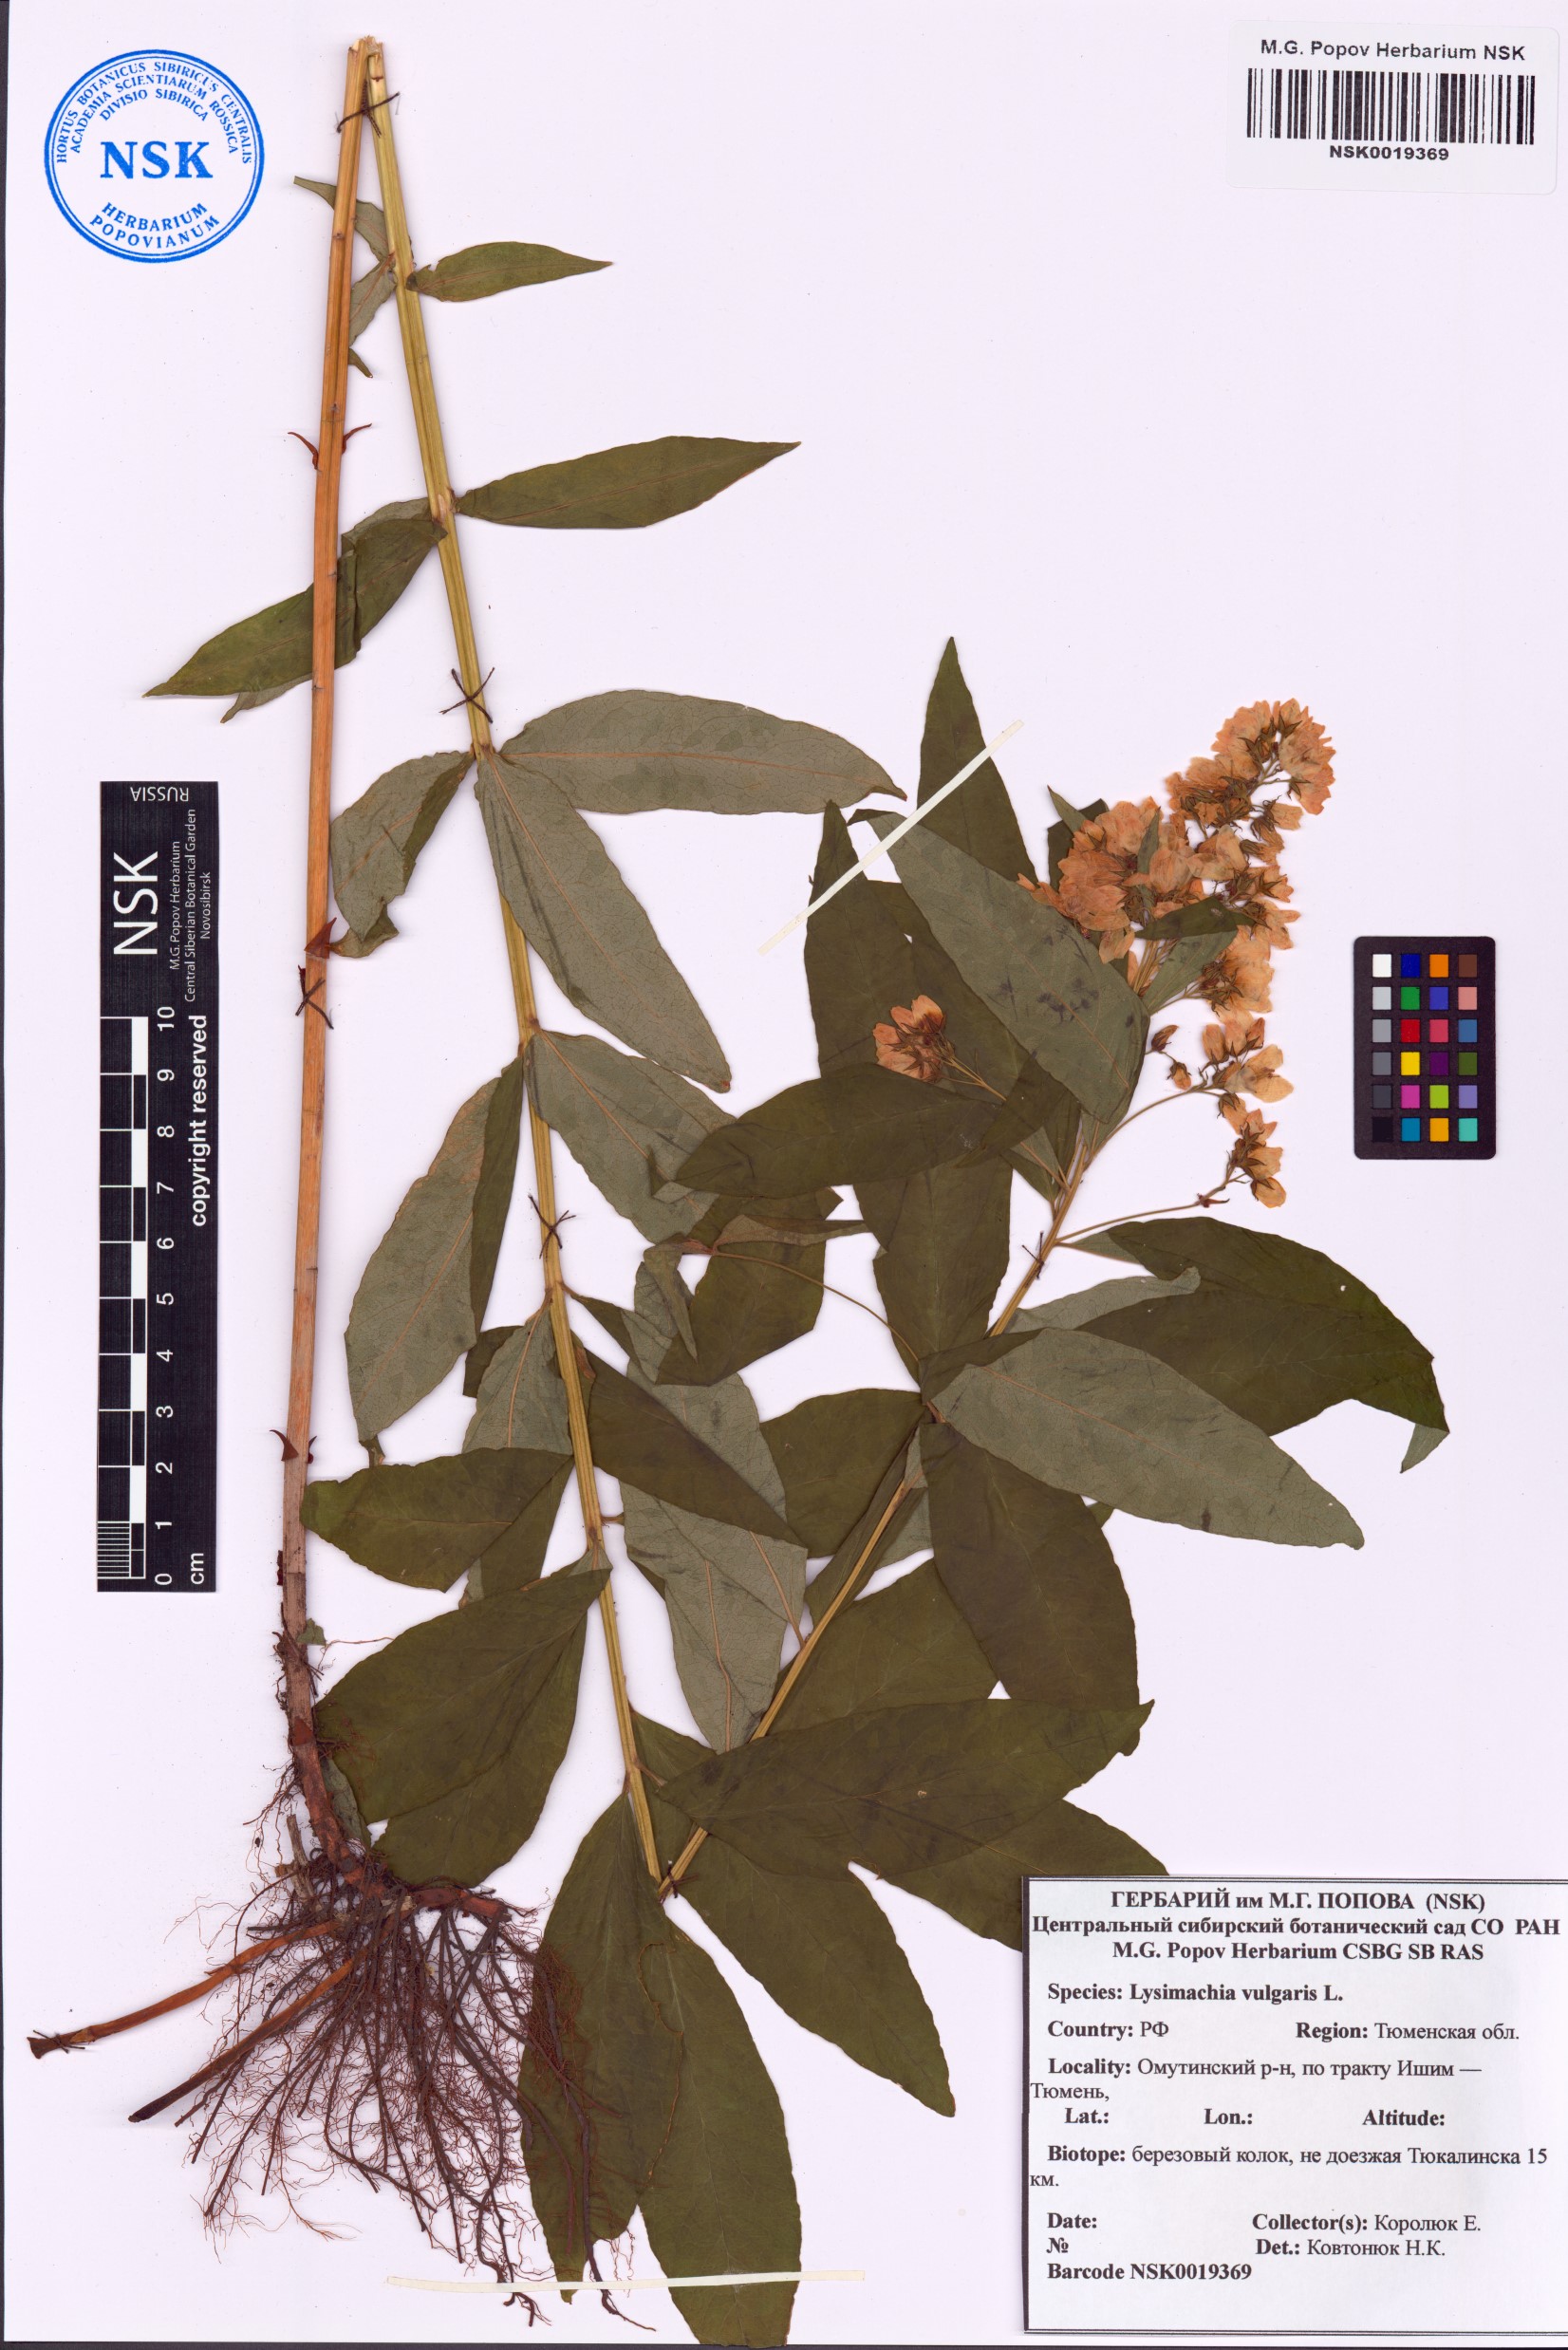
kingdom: Plantae
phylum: Tracheophyta
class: Magnoliopsida
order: Ericales
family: Primulaceae
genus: Lysimachia
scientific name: Lysimachia vulgaris
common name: Yellow loosestrife
